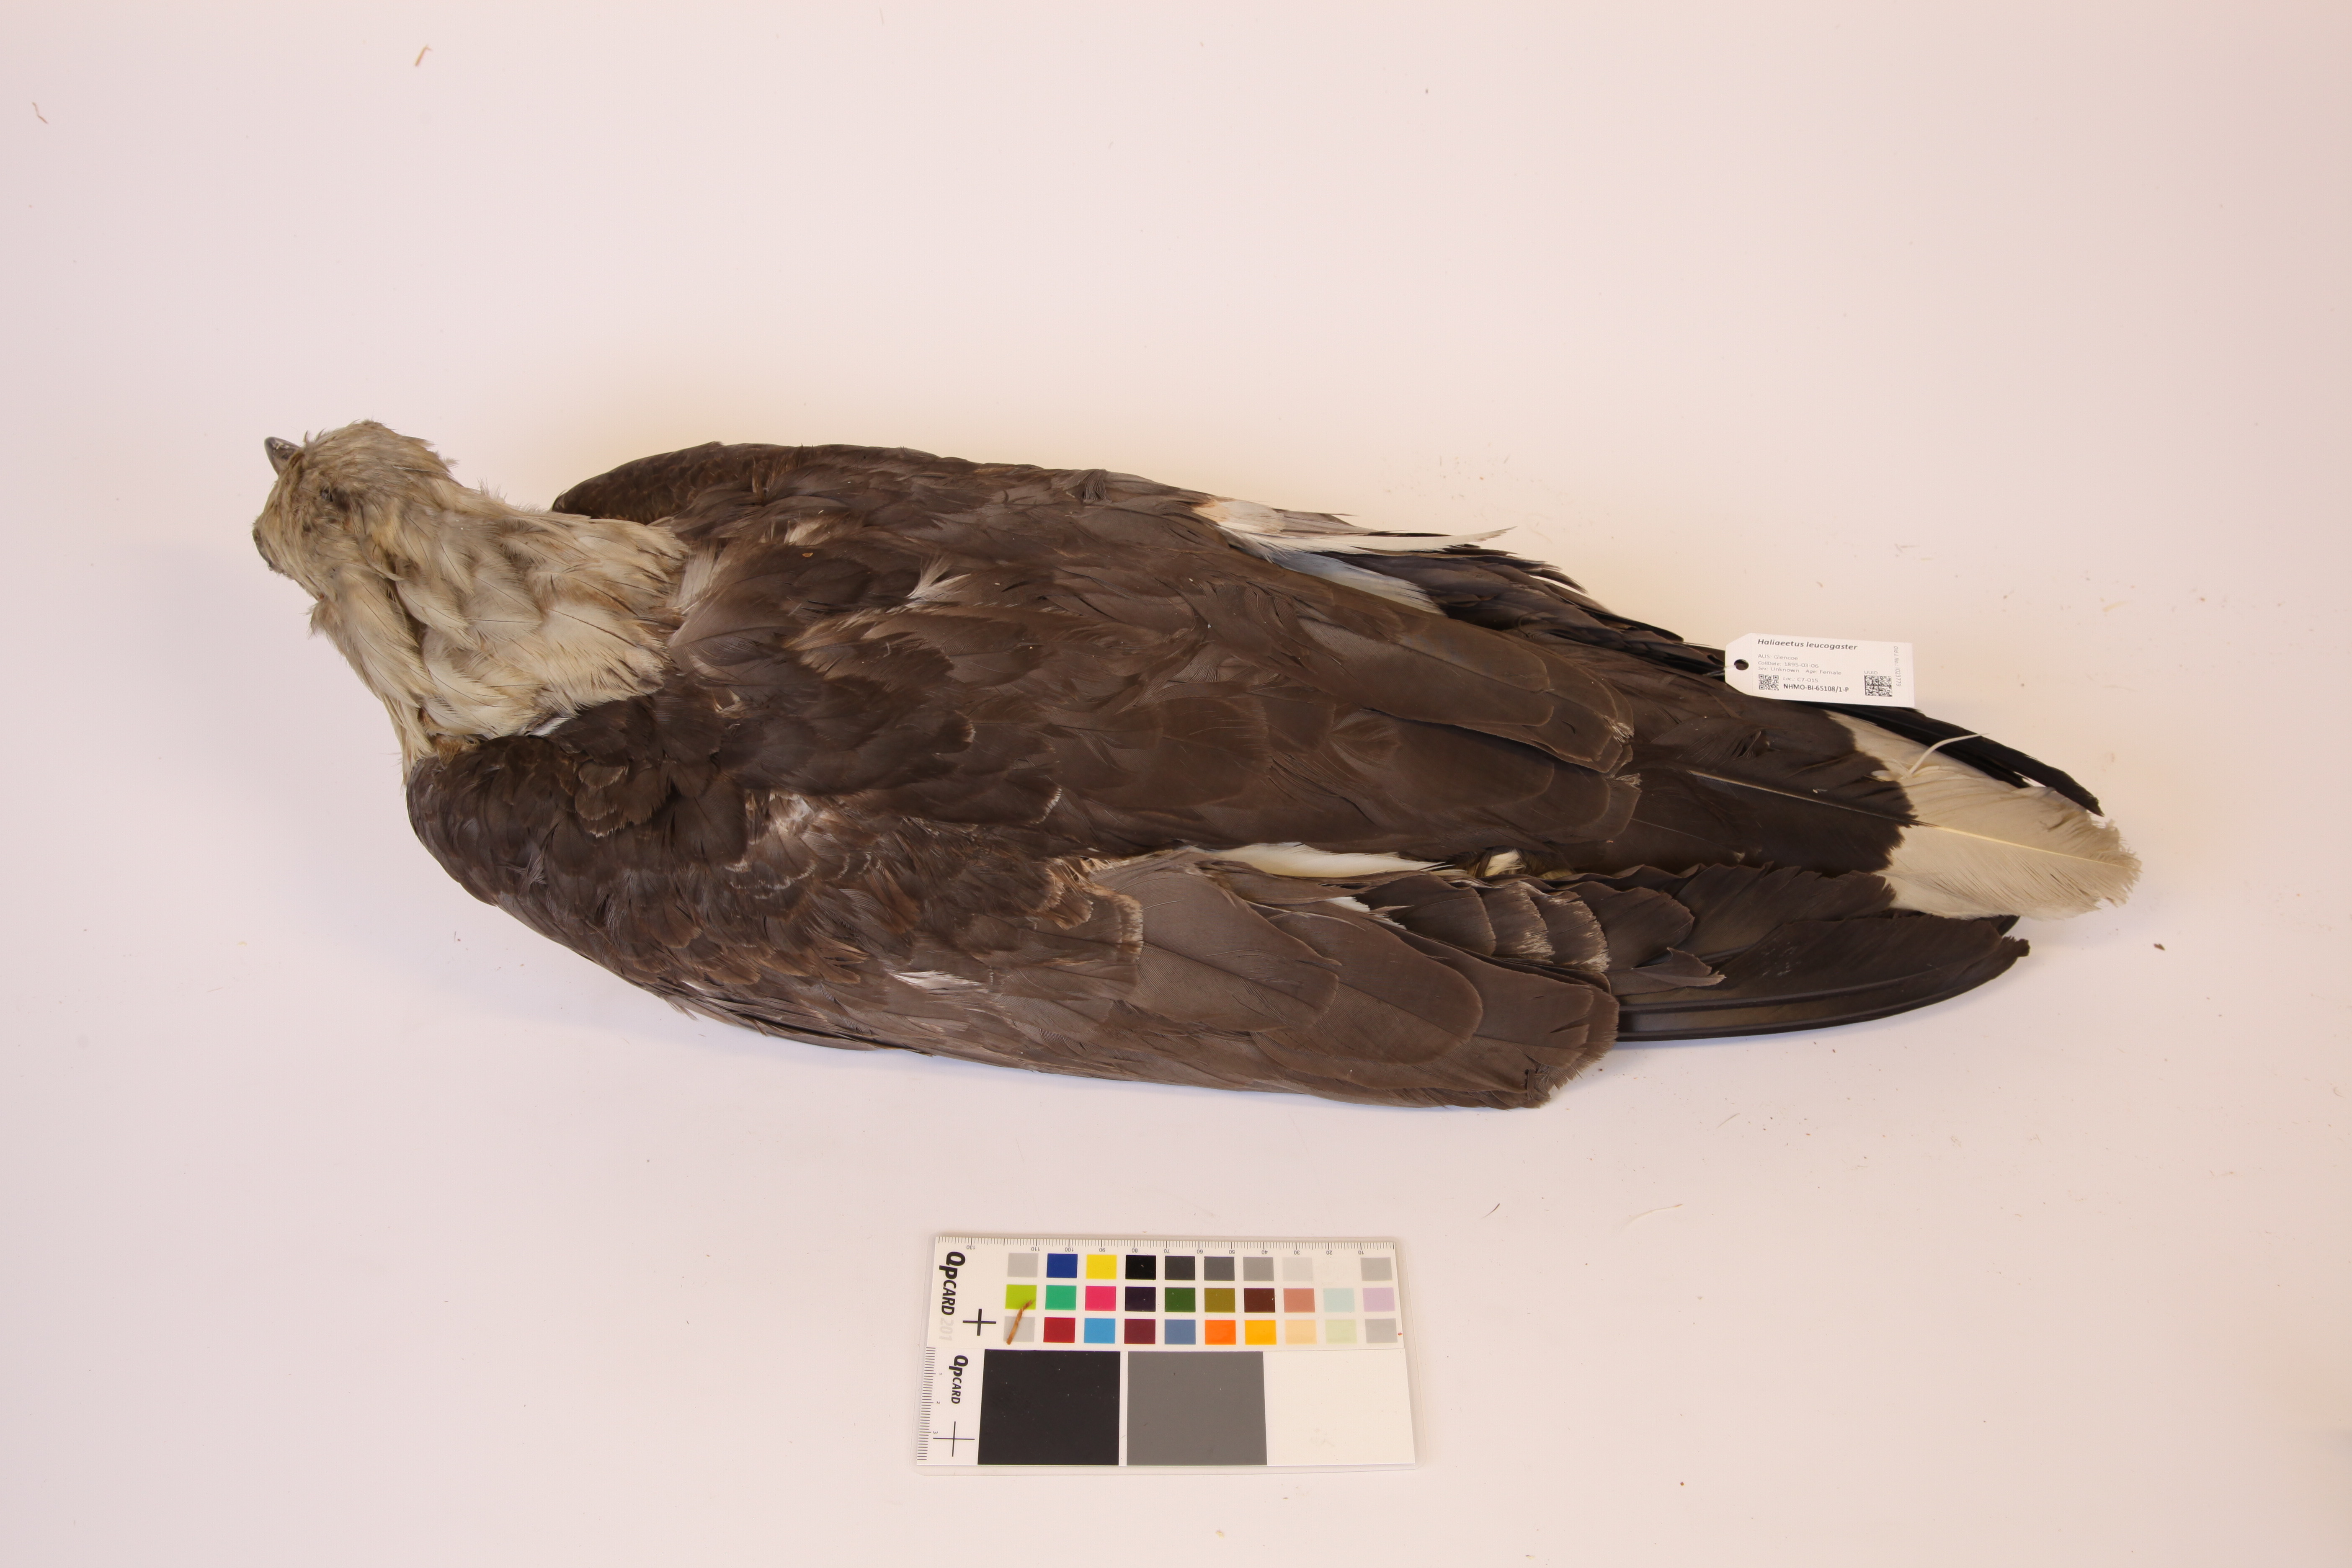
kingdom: Animalia
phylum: Chordata
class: Aves
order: Accipitriformes
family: Accipitridae
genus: Haliaeetus
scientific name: Haliaeetus leucogaster
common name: White-bellied sea eagle
